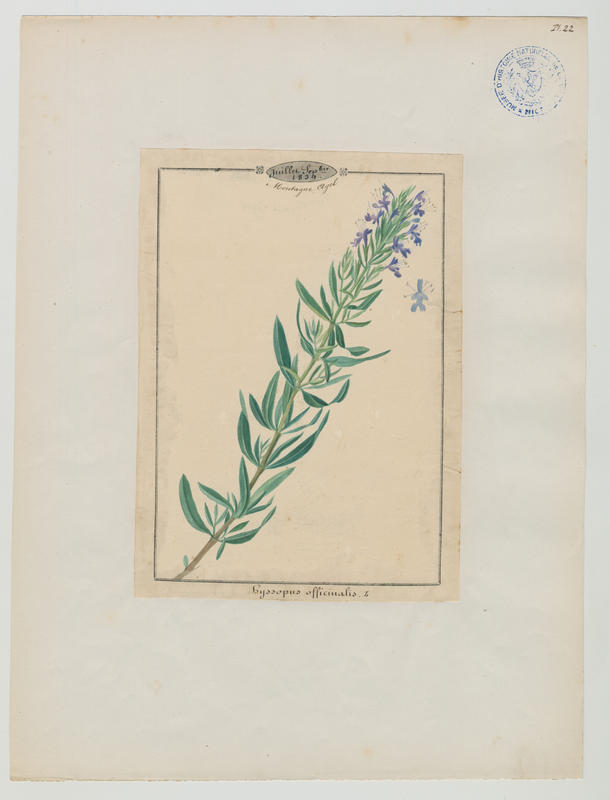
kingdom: Plantae
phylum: Tracheophyta
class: Magnoliopsida
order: Lamiales
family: Lamiaceae
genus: Hyssopus
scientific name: Hyssopus officinalis
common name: Hyssop
